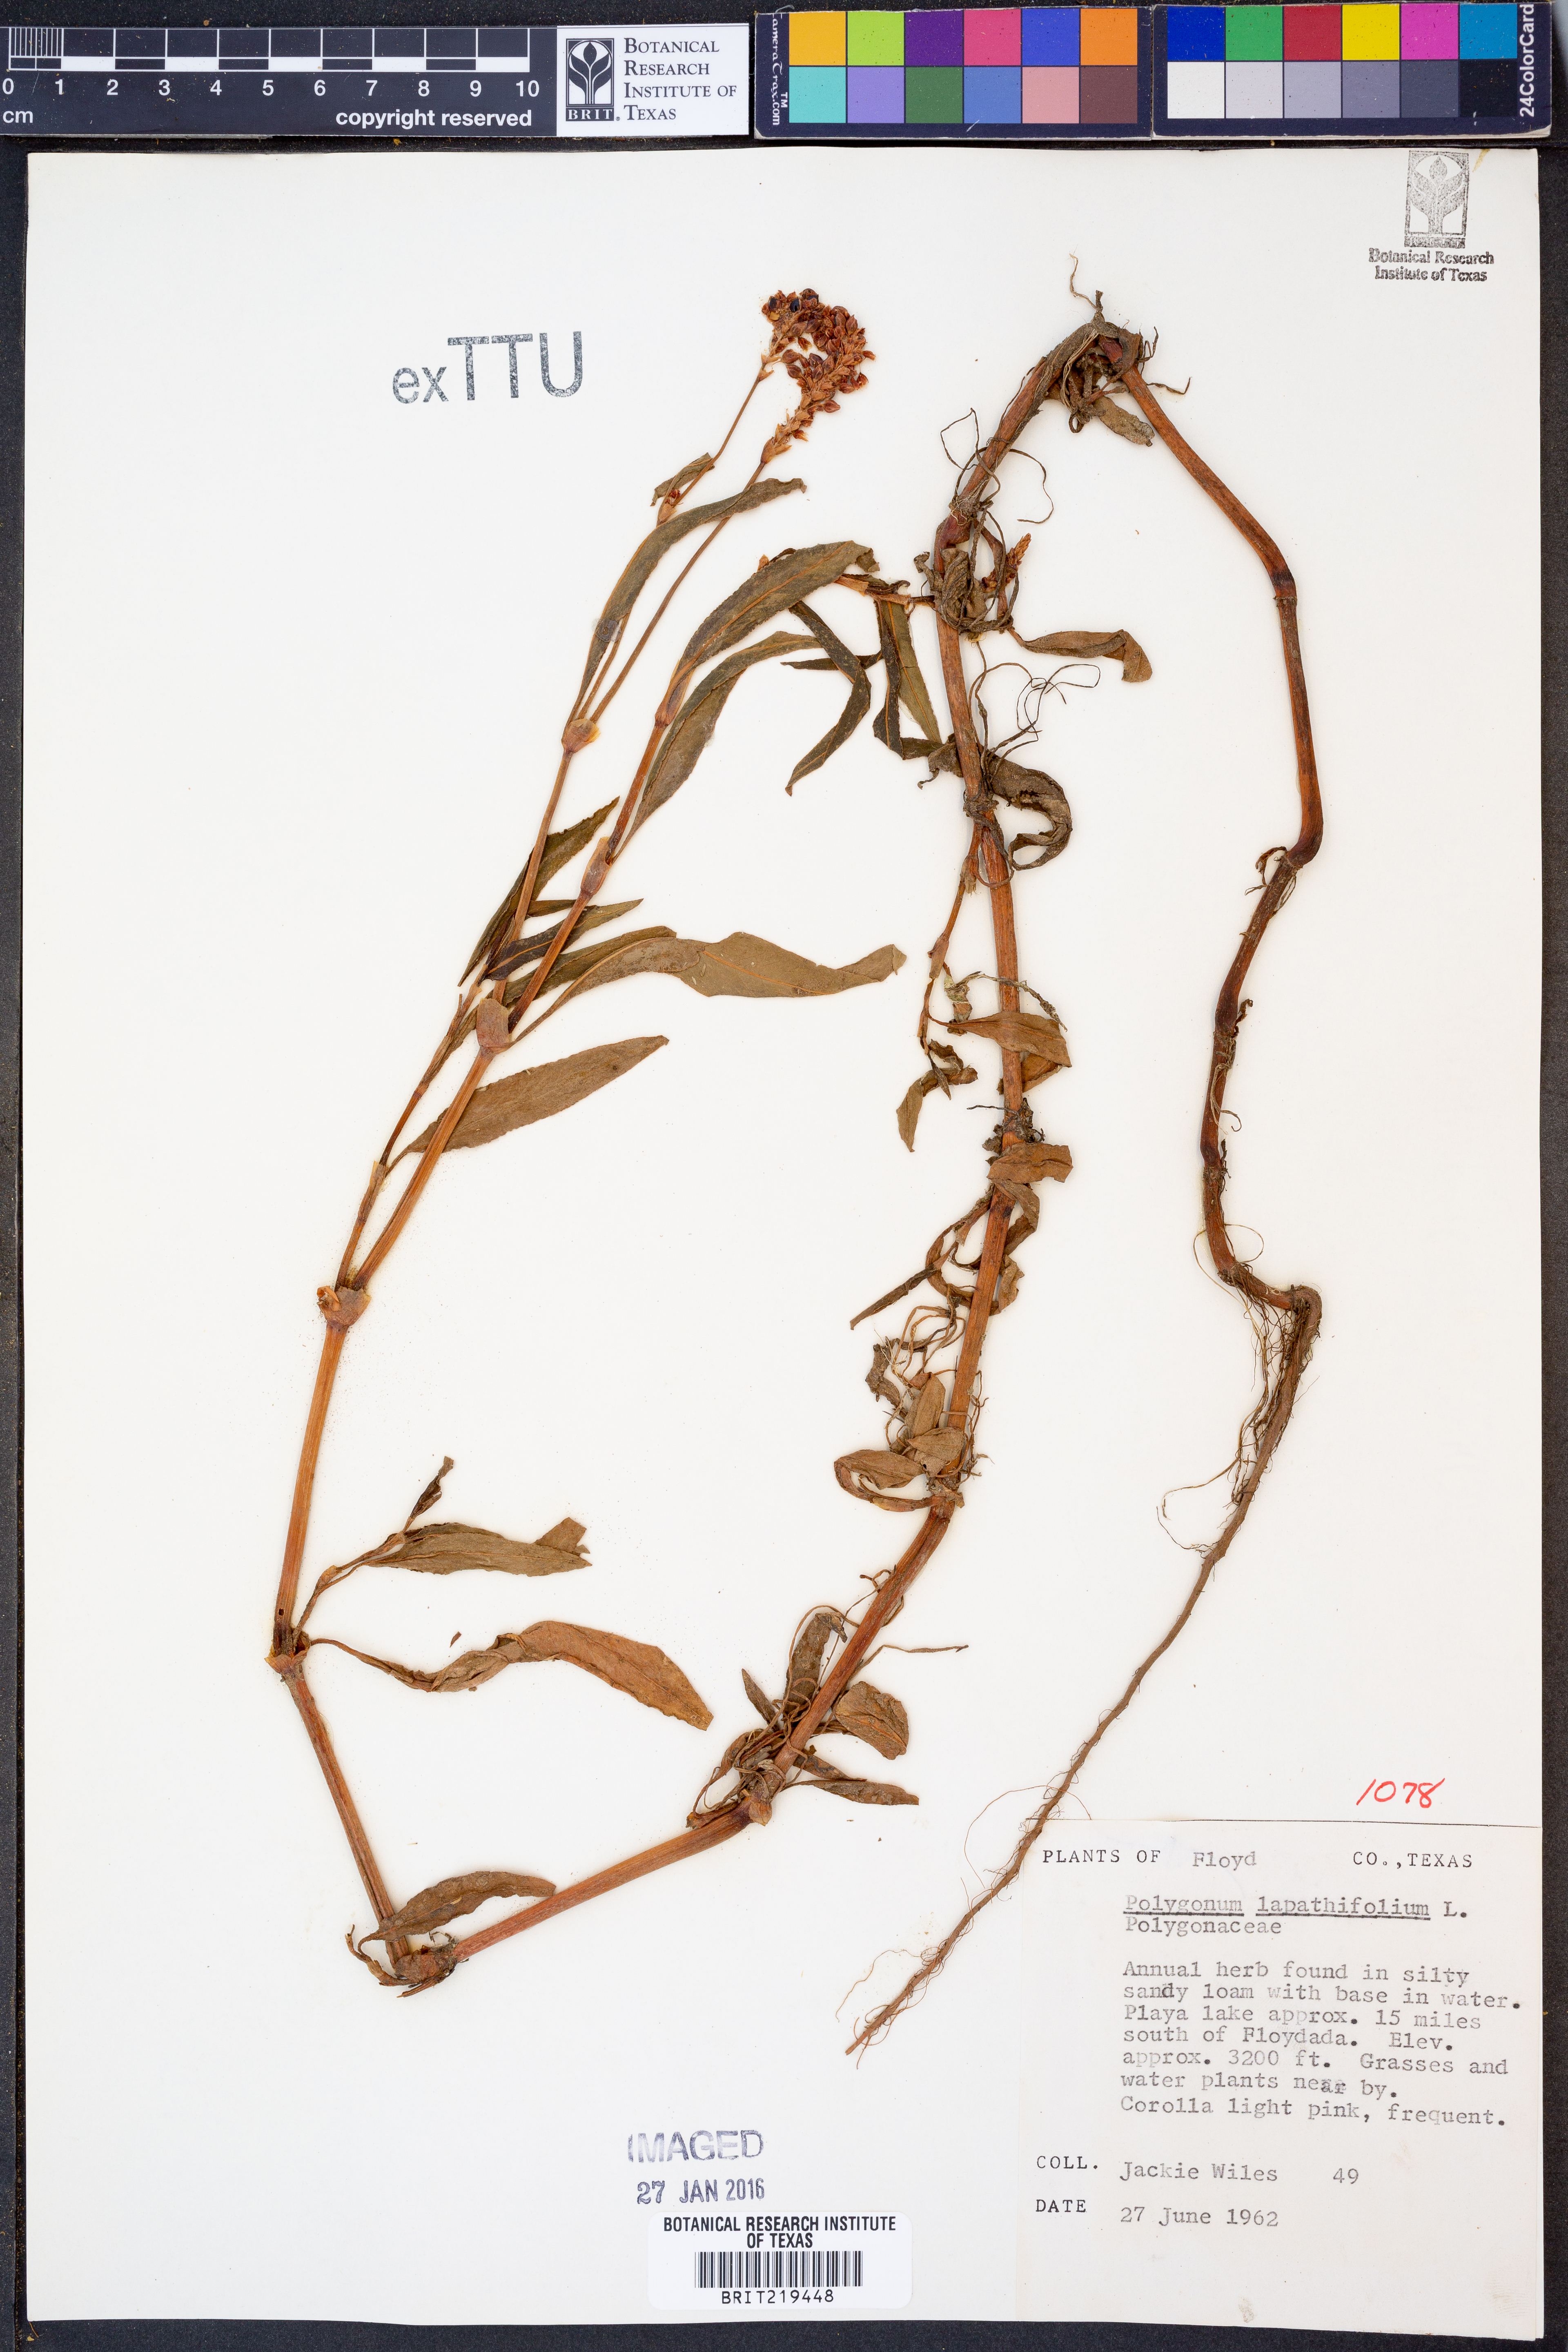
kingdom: Plantae
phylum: Tracheophyta
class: Magnoliopsida
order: Caryophyllales
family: Polygonaceae
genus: Persicaria
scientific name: Persicaria lapathifolia
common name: Curlytop knotweed
